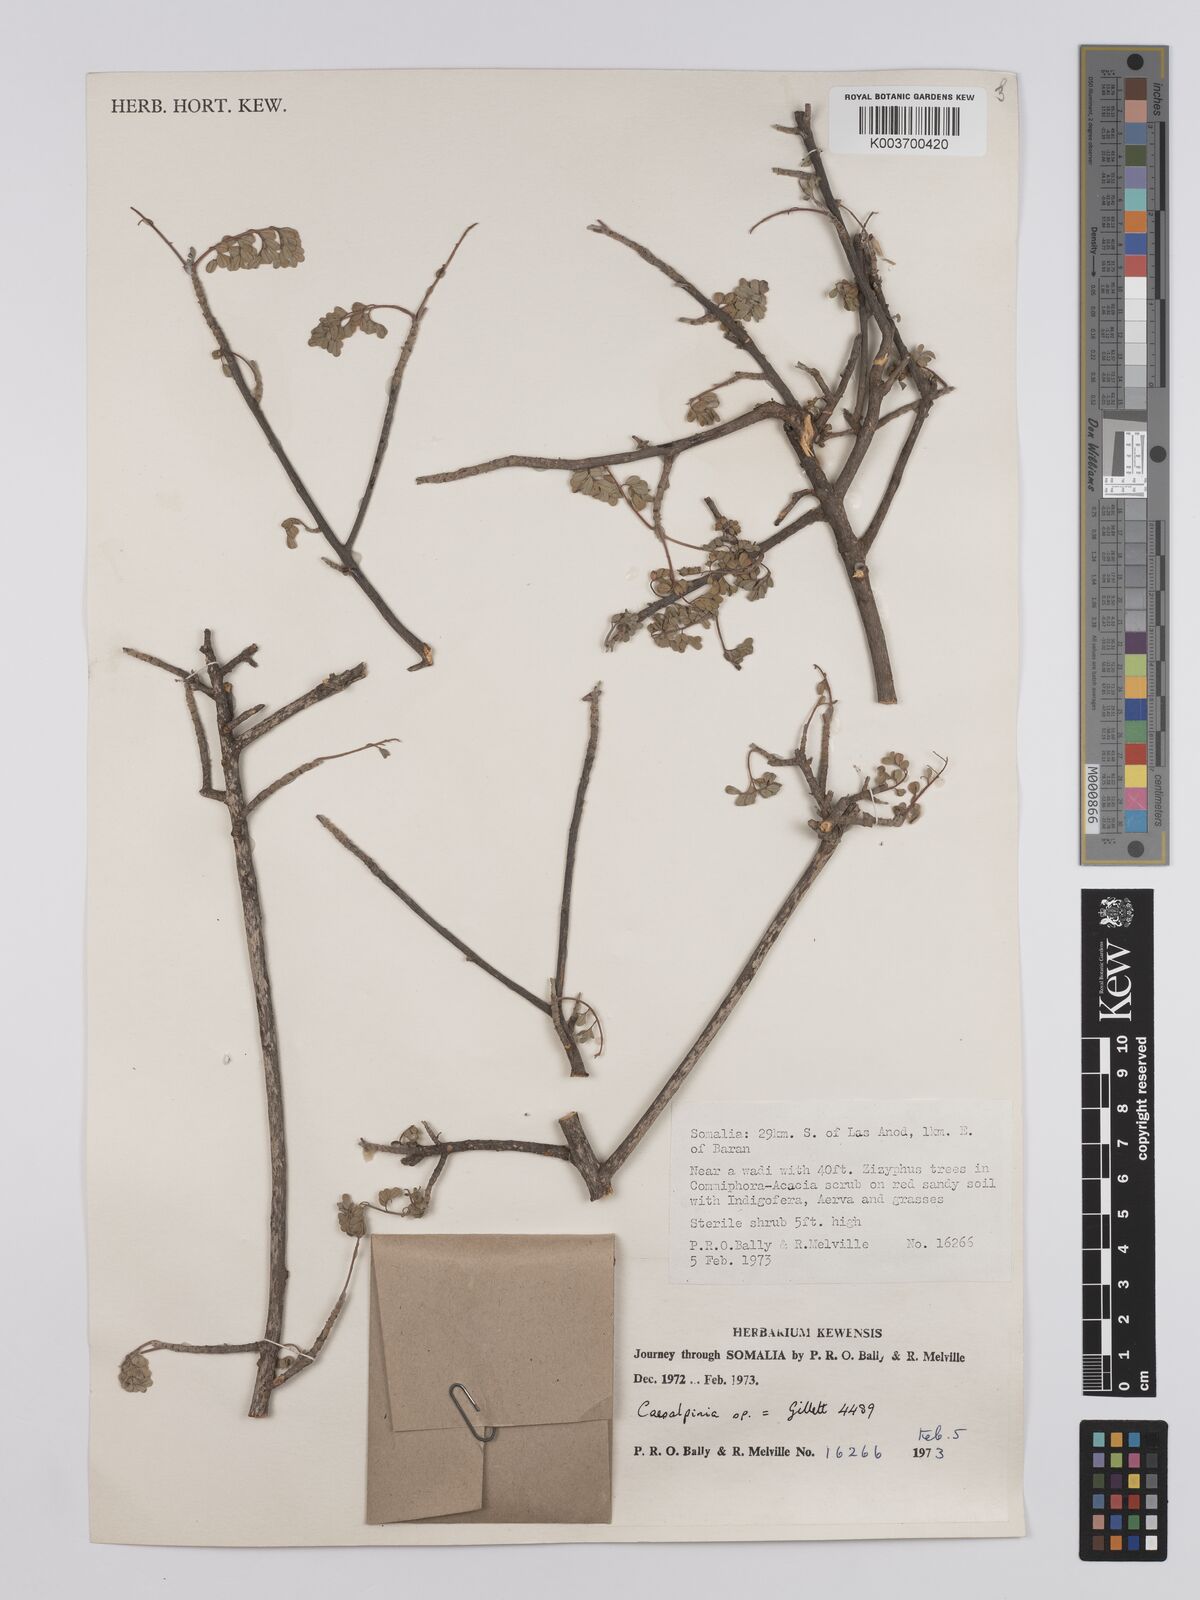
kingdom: Plantae
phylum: Tracheophyta
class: Magnoliopsida
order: Fabales
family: Fabaceae
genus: Denisophytum
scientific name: Denisophytum eriantherum
